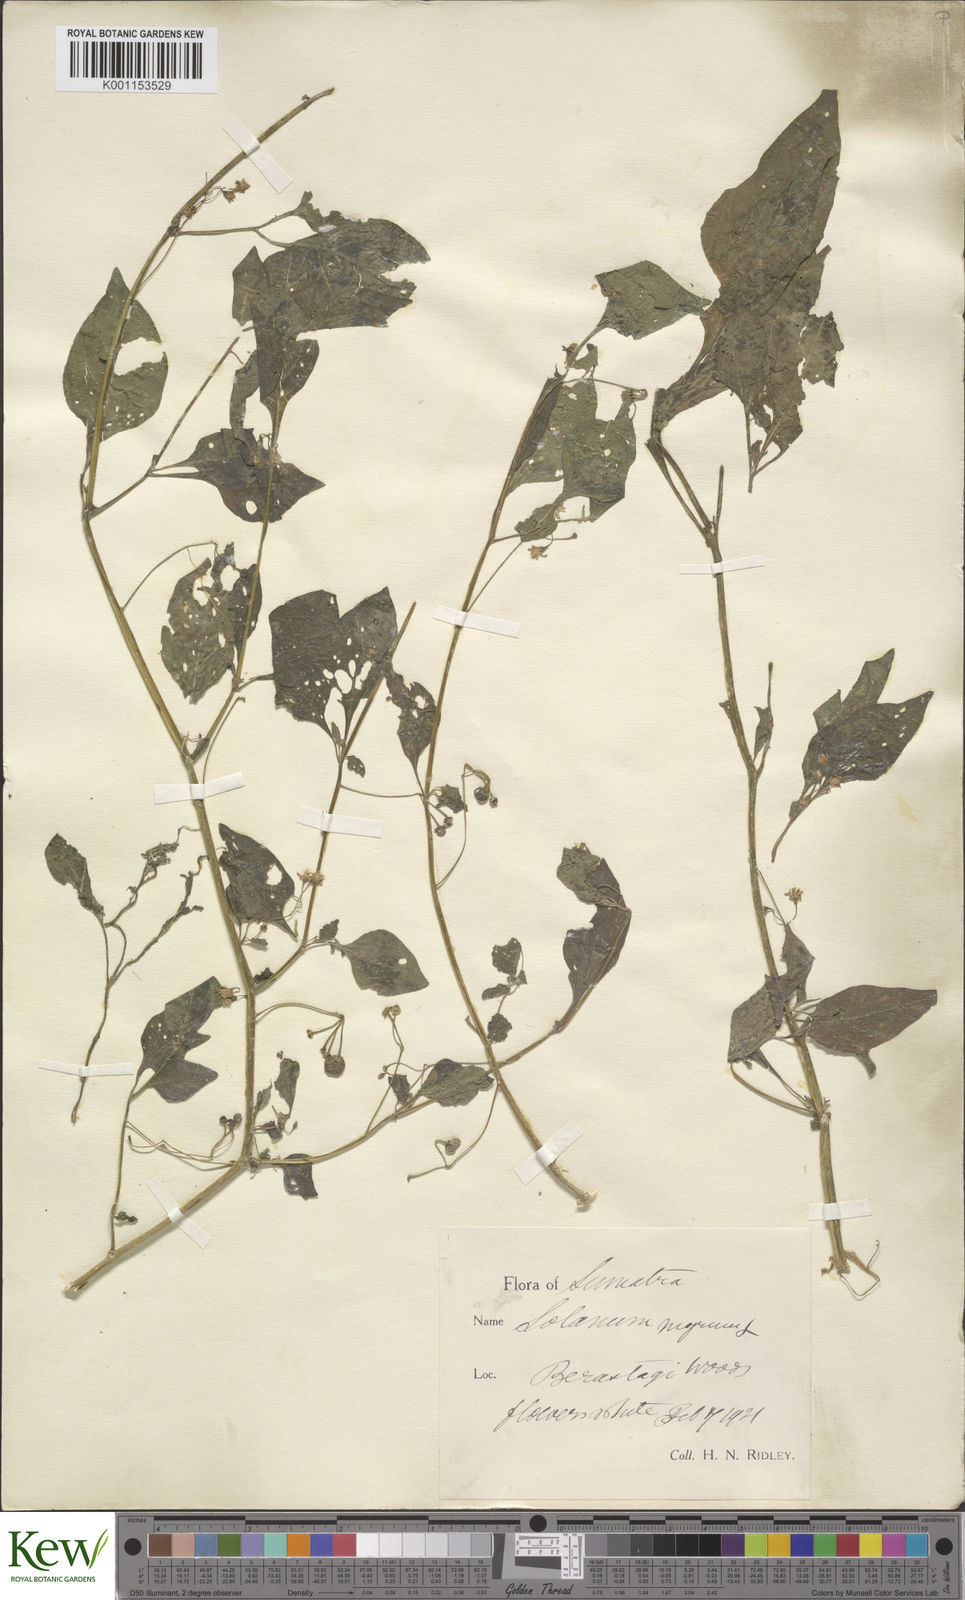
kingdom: Plantae
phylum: Tracheophyta
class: Magnoliopsida
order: Solanales
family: Solanaceae
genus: Solanum
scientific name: Solanum nigrum
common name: Black nightshade
